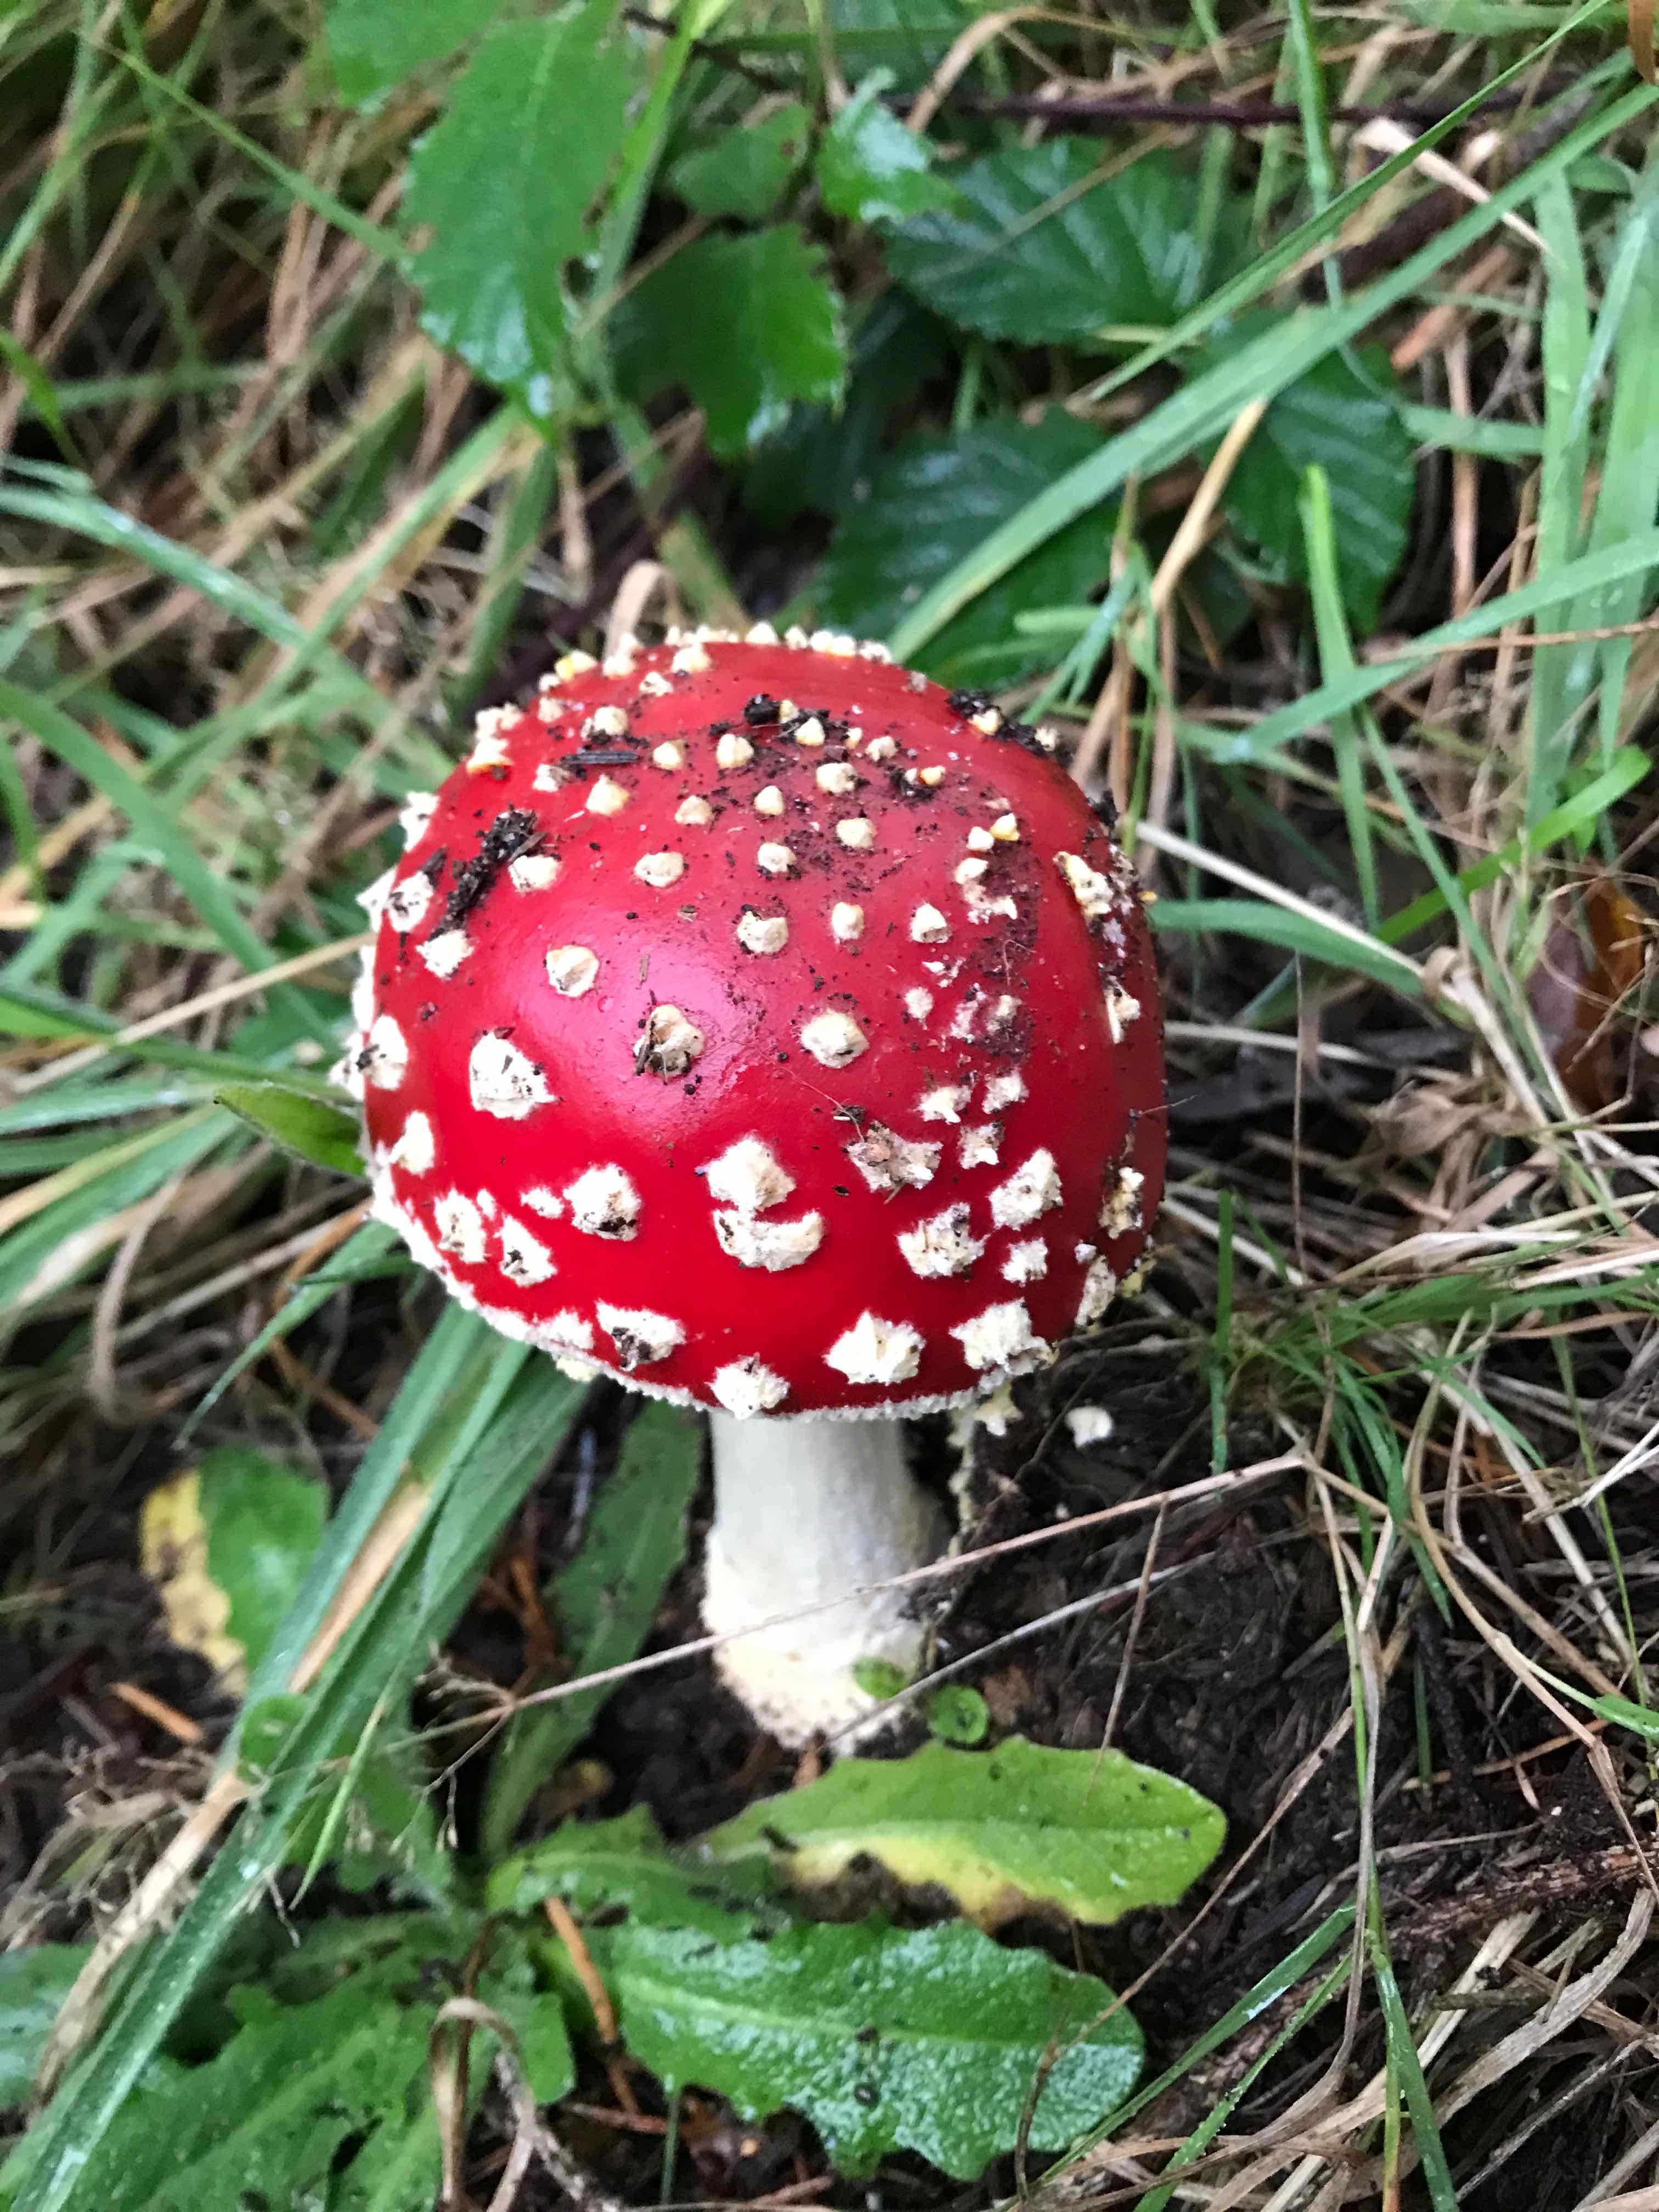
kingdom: Fungi
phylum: Basidiomycota
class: Agaricomycetes
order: Agaricales
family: Amanitaceae
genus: Amanita
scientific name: Amanita muscaria
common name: rød fluesvamp
